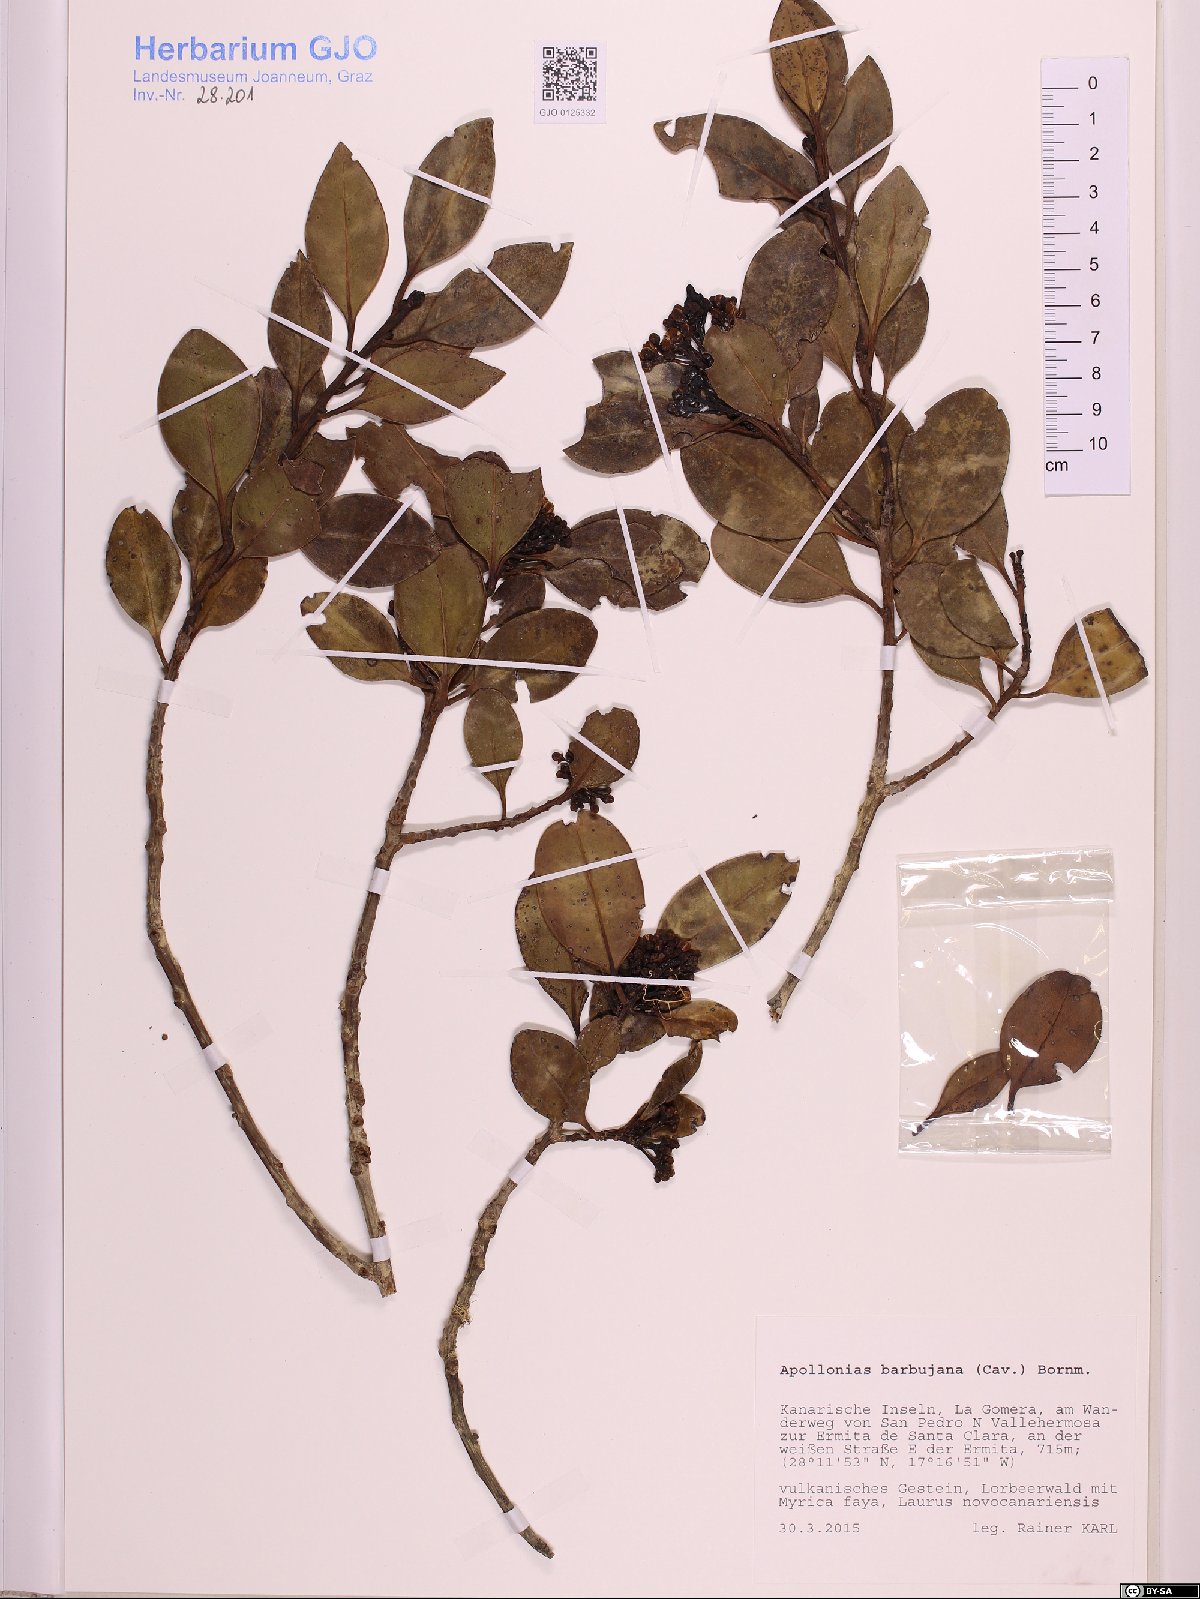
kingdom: Plantae
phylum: Tracheophyta
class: Magnoliopsida
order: Laurales
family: Lauraceae
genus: Apollonias
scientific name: Apollonias barbujana
